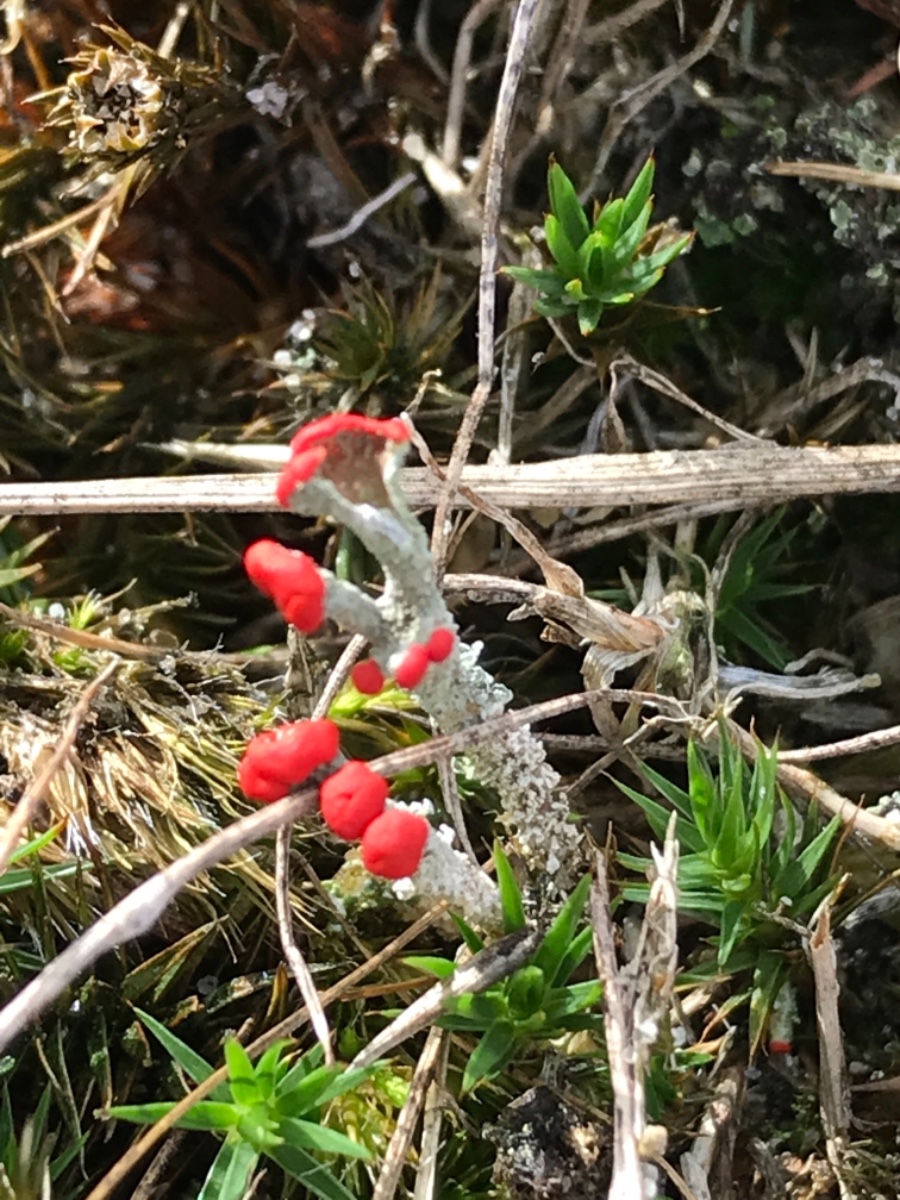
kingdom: Fungi
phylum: Ascomycota
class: Lecanoromycetes
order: Lecanorales
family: Cladoniaceae
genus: Cladonia
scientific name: Cladonia floerkeana
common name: lakrød bægerlav
